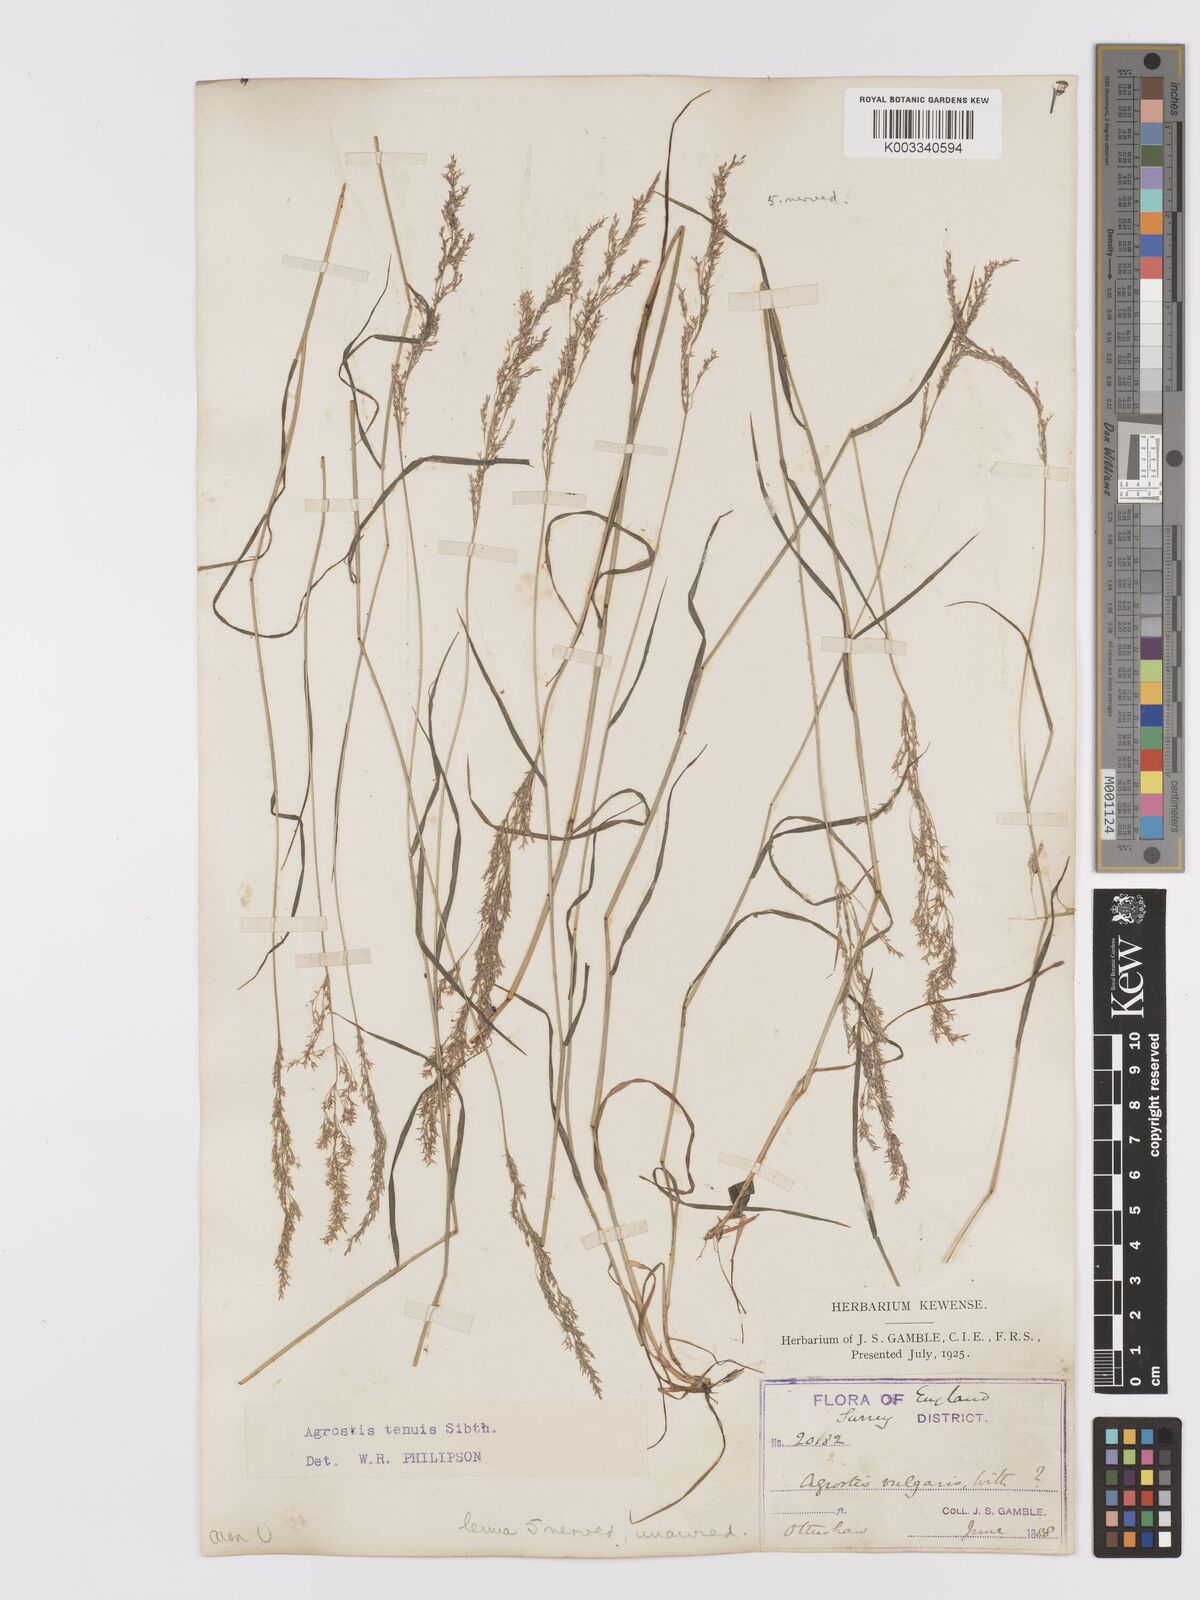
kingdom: Plantae
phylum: Tracheophyta
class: Liliopsida
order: Poales
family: Poaceae
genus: Agrostis
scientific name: Agrostis capillaris
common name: Colonial bentgrass
